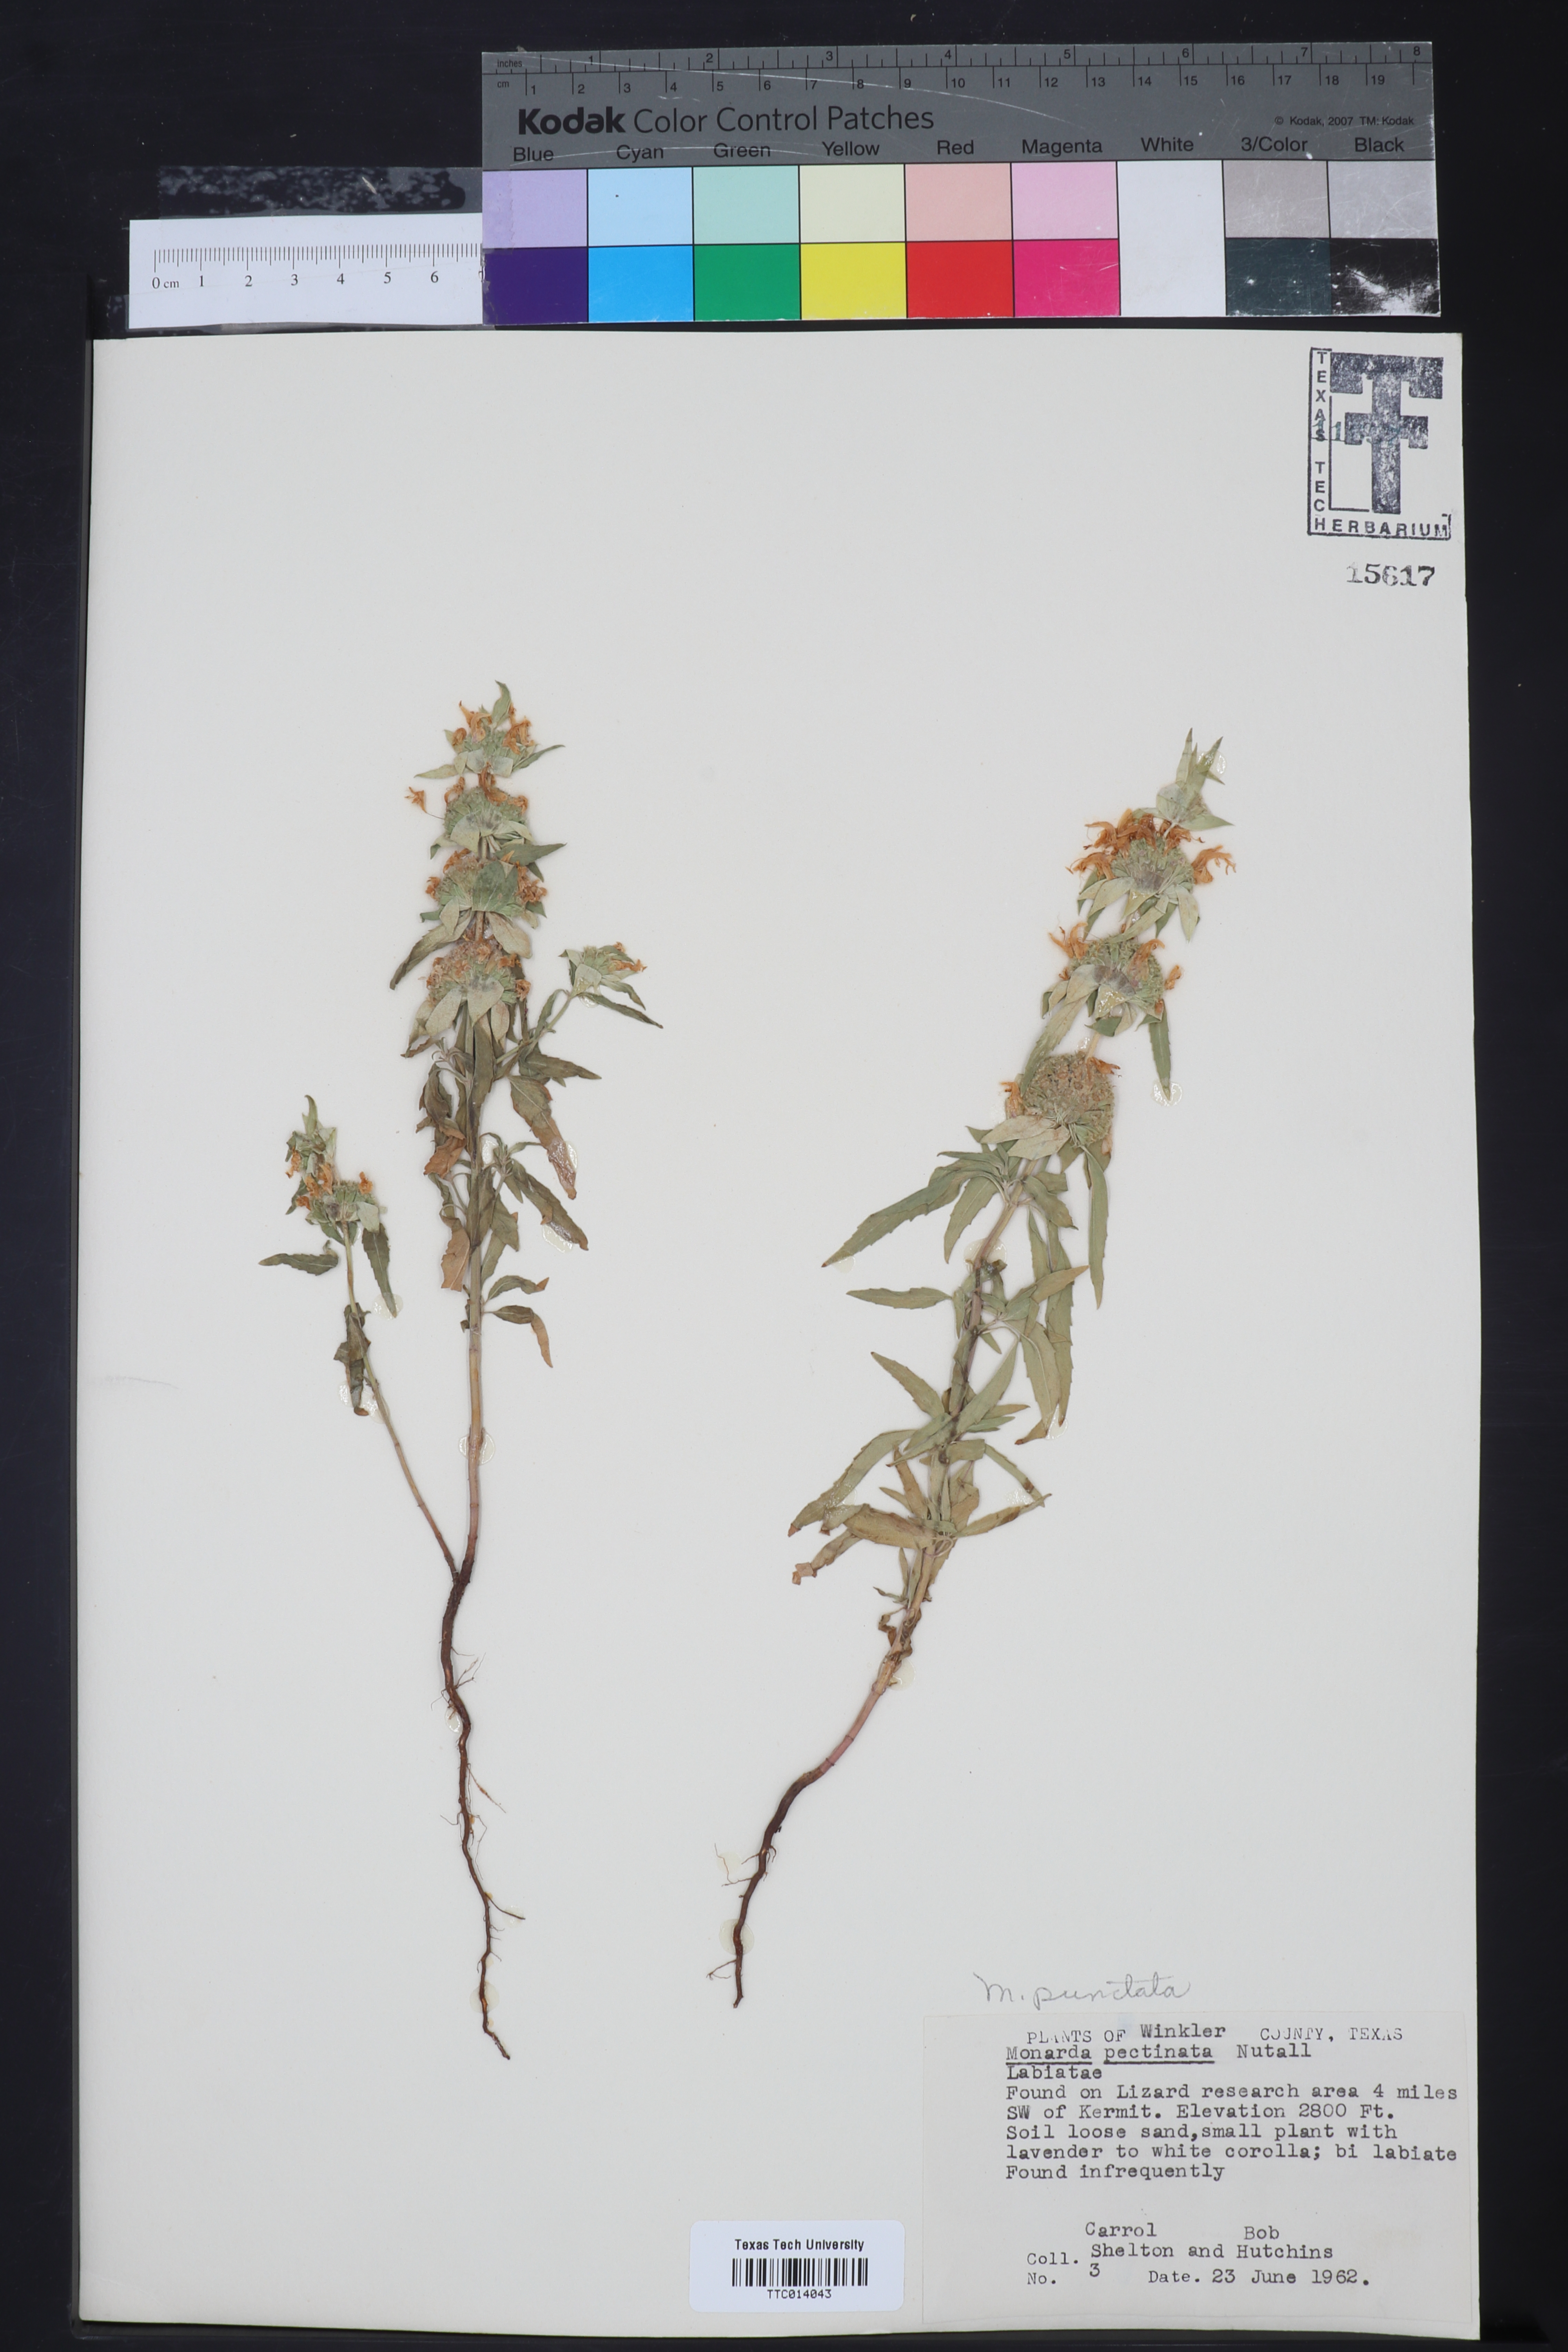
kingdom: Plantae
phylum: Tracheophyta
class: Magnoliopsida
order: Lamiales
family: Lamiaceae
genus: Monarda
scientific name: Monarda punctata
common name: Dotted monarda
